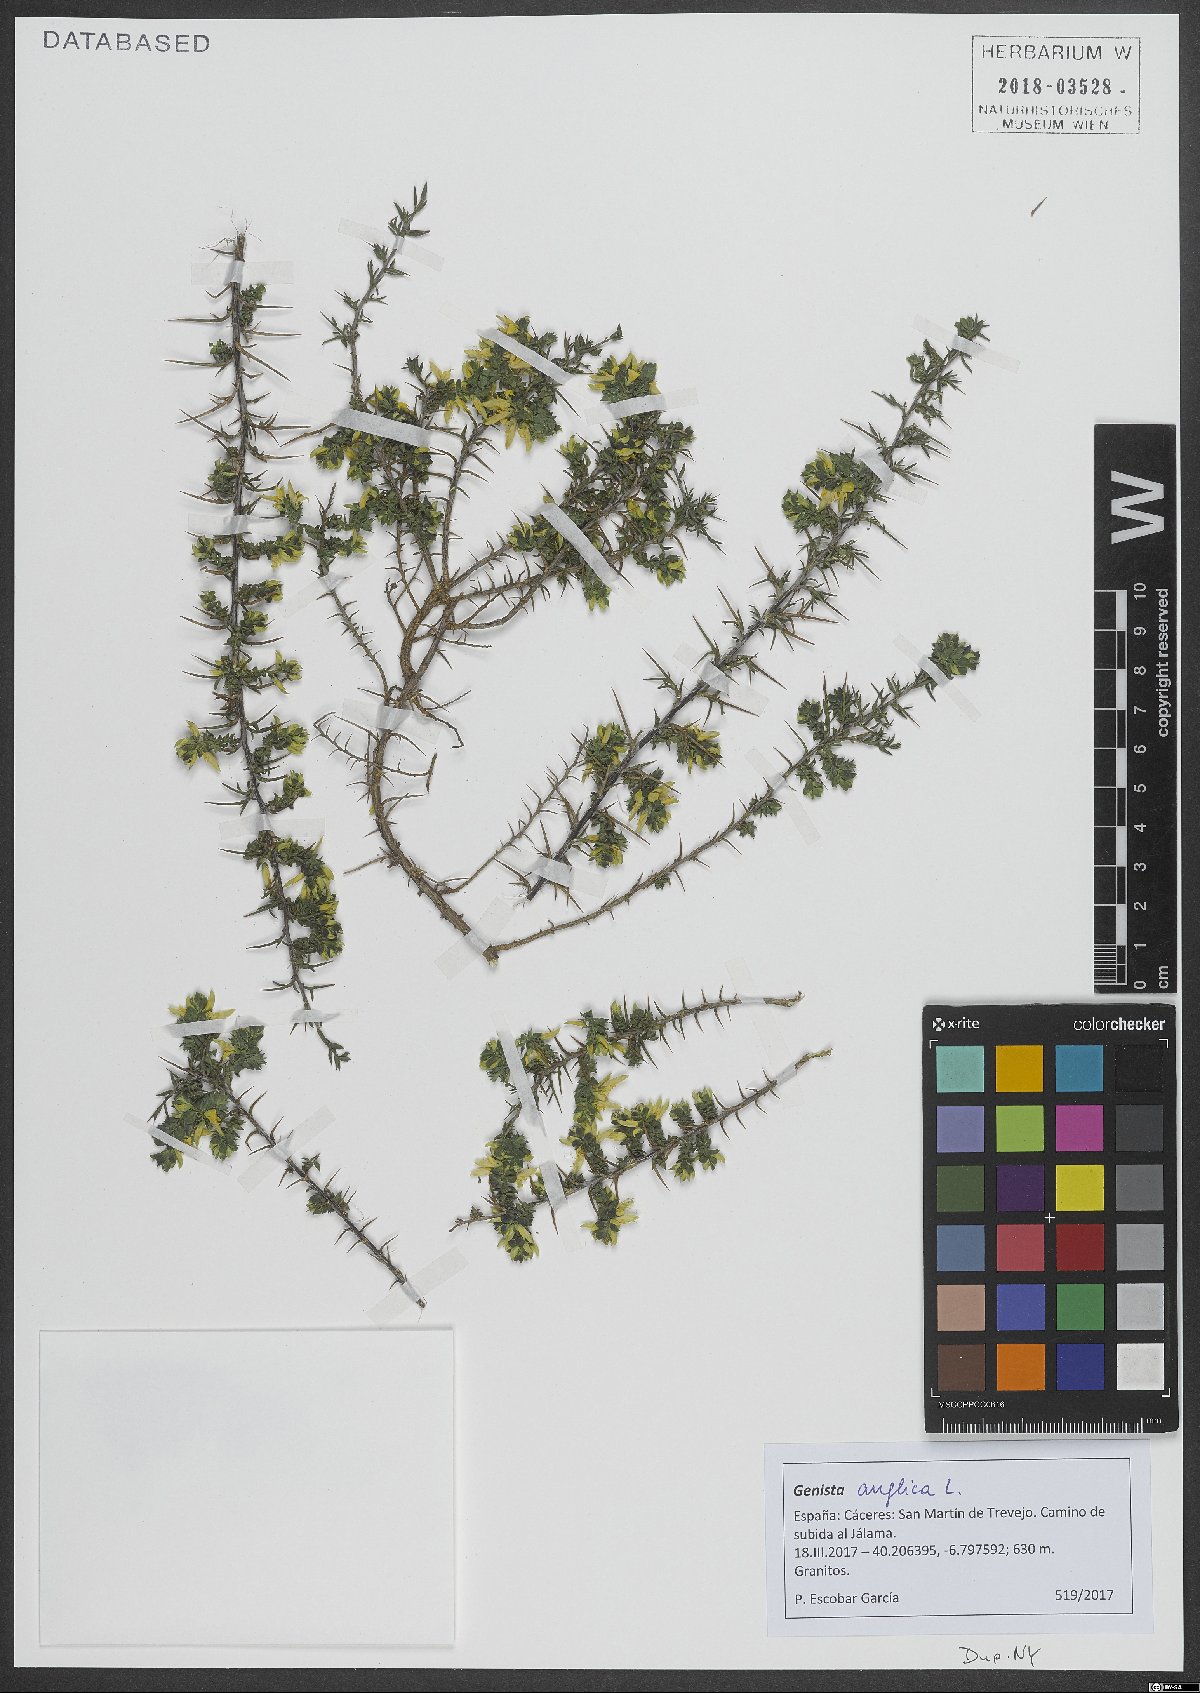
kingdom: Plantae
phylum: Tracheophyta
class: Magnoliopsida
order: Fabales
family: Fabaceae
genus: Genista
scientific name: Genista anglica
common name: Petty whin
